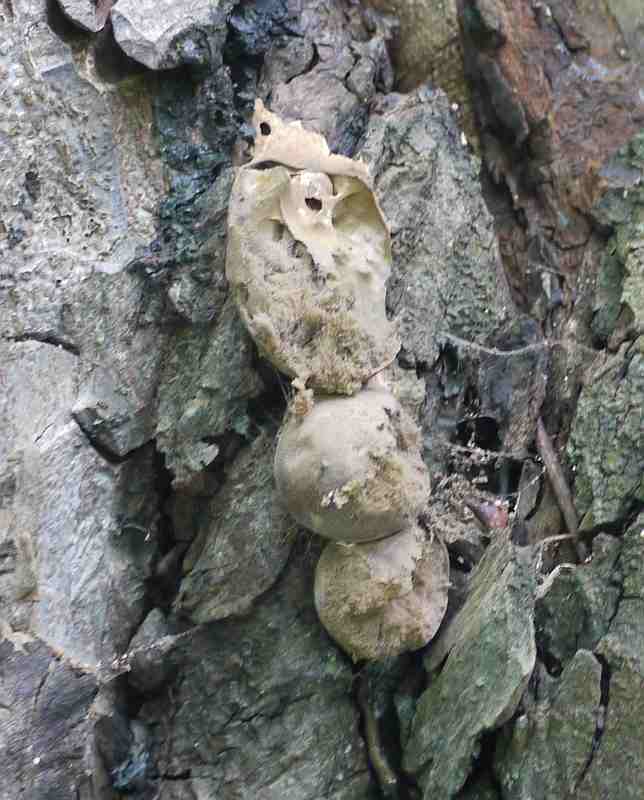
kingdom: Protozoa
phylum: Mycetozoa
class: Myxomycetes
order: Cribrariales
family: Tubiferaceae
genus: Lycogala
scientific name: Lycogala flavofuscum
